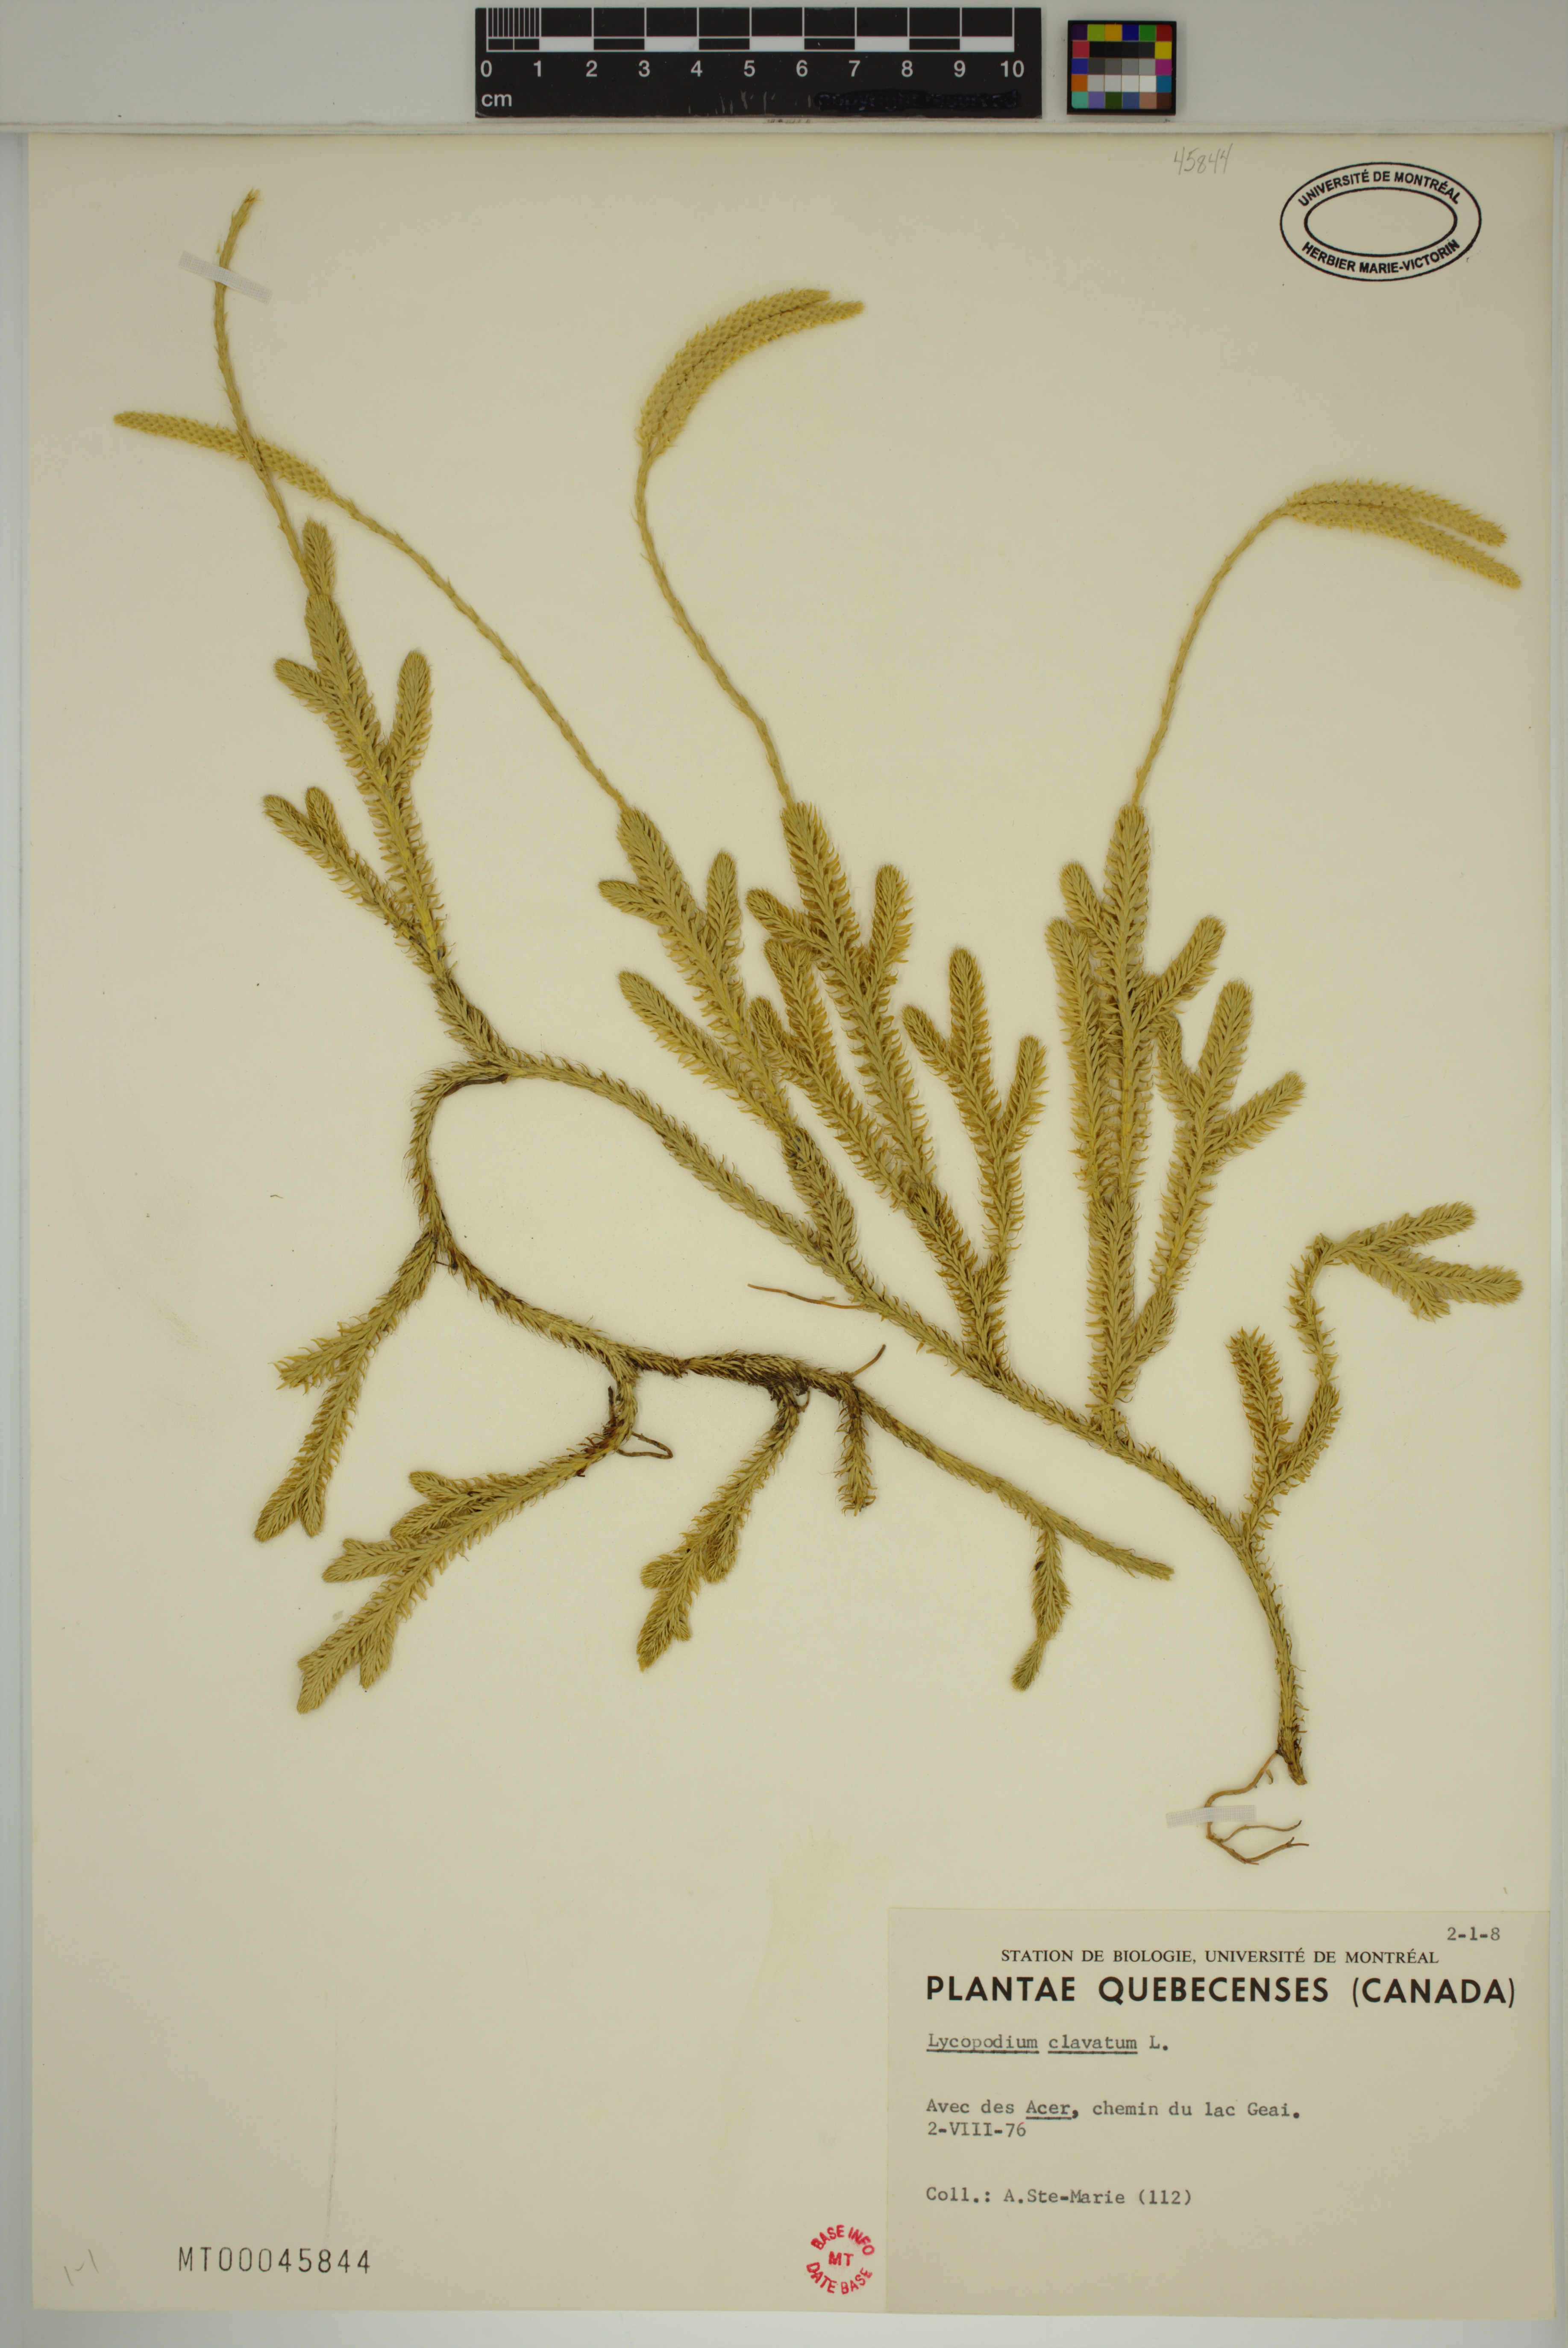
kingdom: Plantae
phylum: Tracheophyta
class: Lycopodiopsida
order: Lycopodiales
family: Lycopodiaceae
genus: Lycopodium
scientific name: Lycopodium clavatum
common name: Stag's-horn clubmoss
